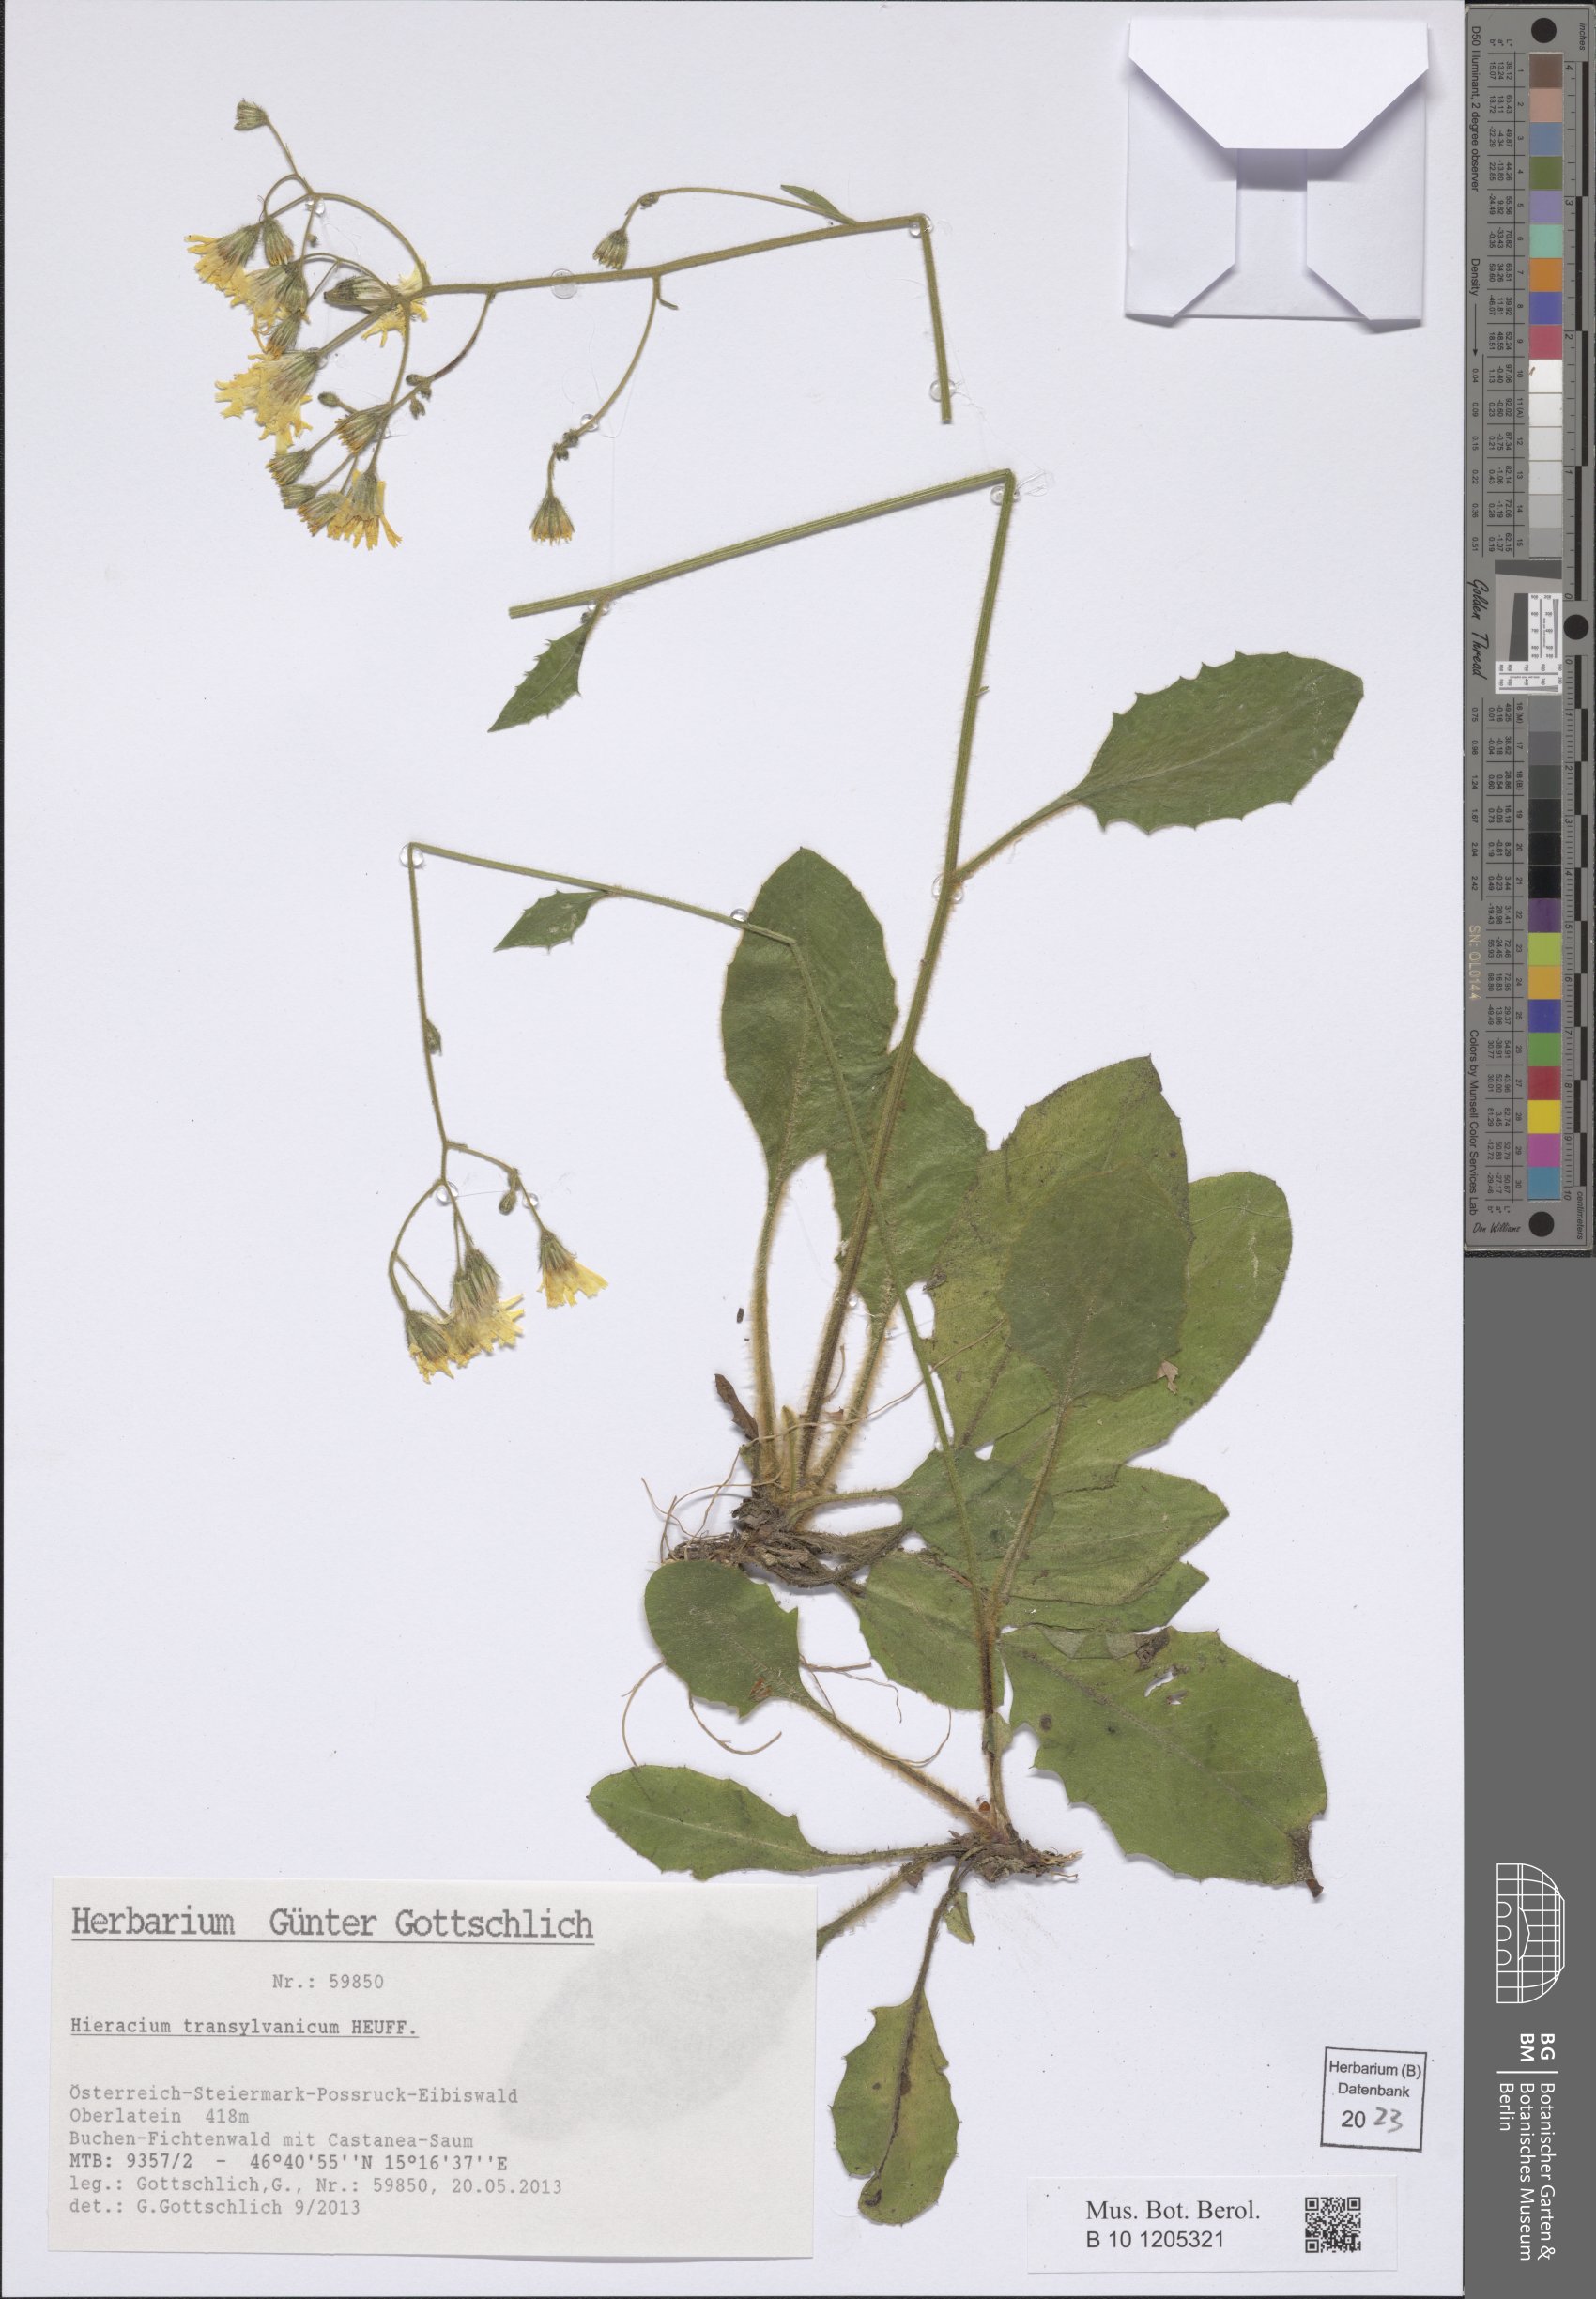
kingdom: Plantae
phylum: Tracheophyta
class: Magnoliopsida
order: Asterales
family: Asteraceae
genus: Hieracium
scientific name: Hieracium transylvanicum
